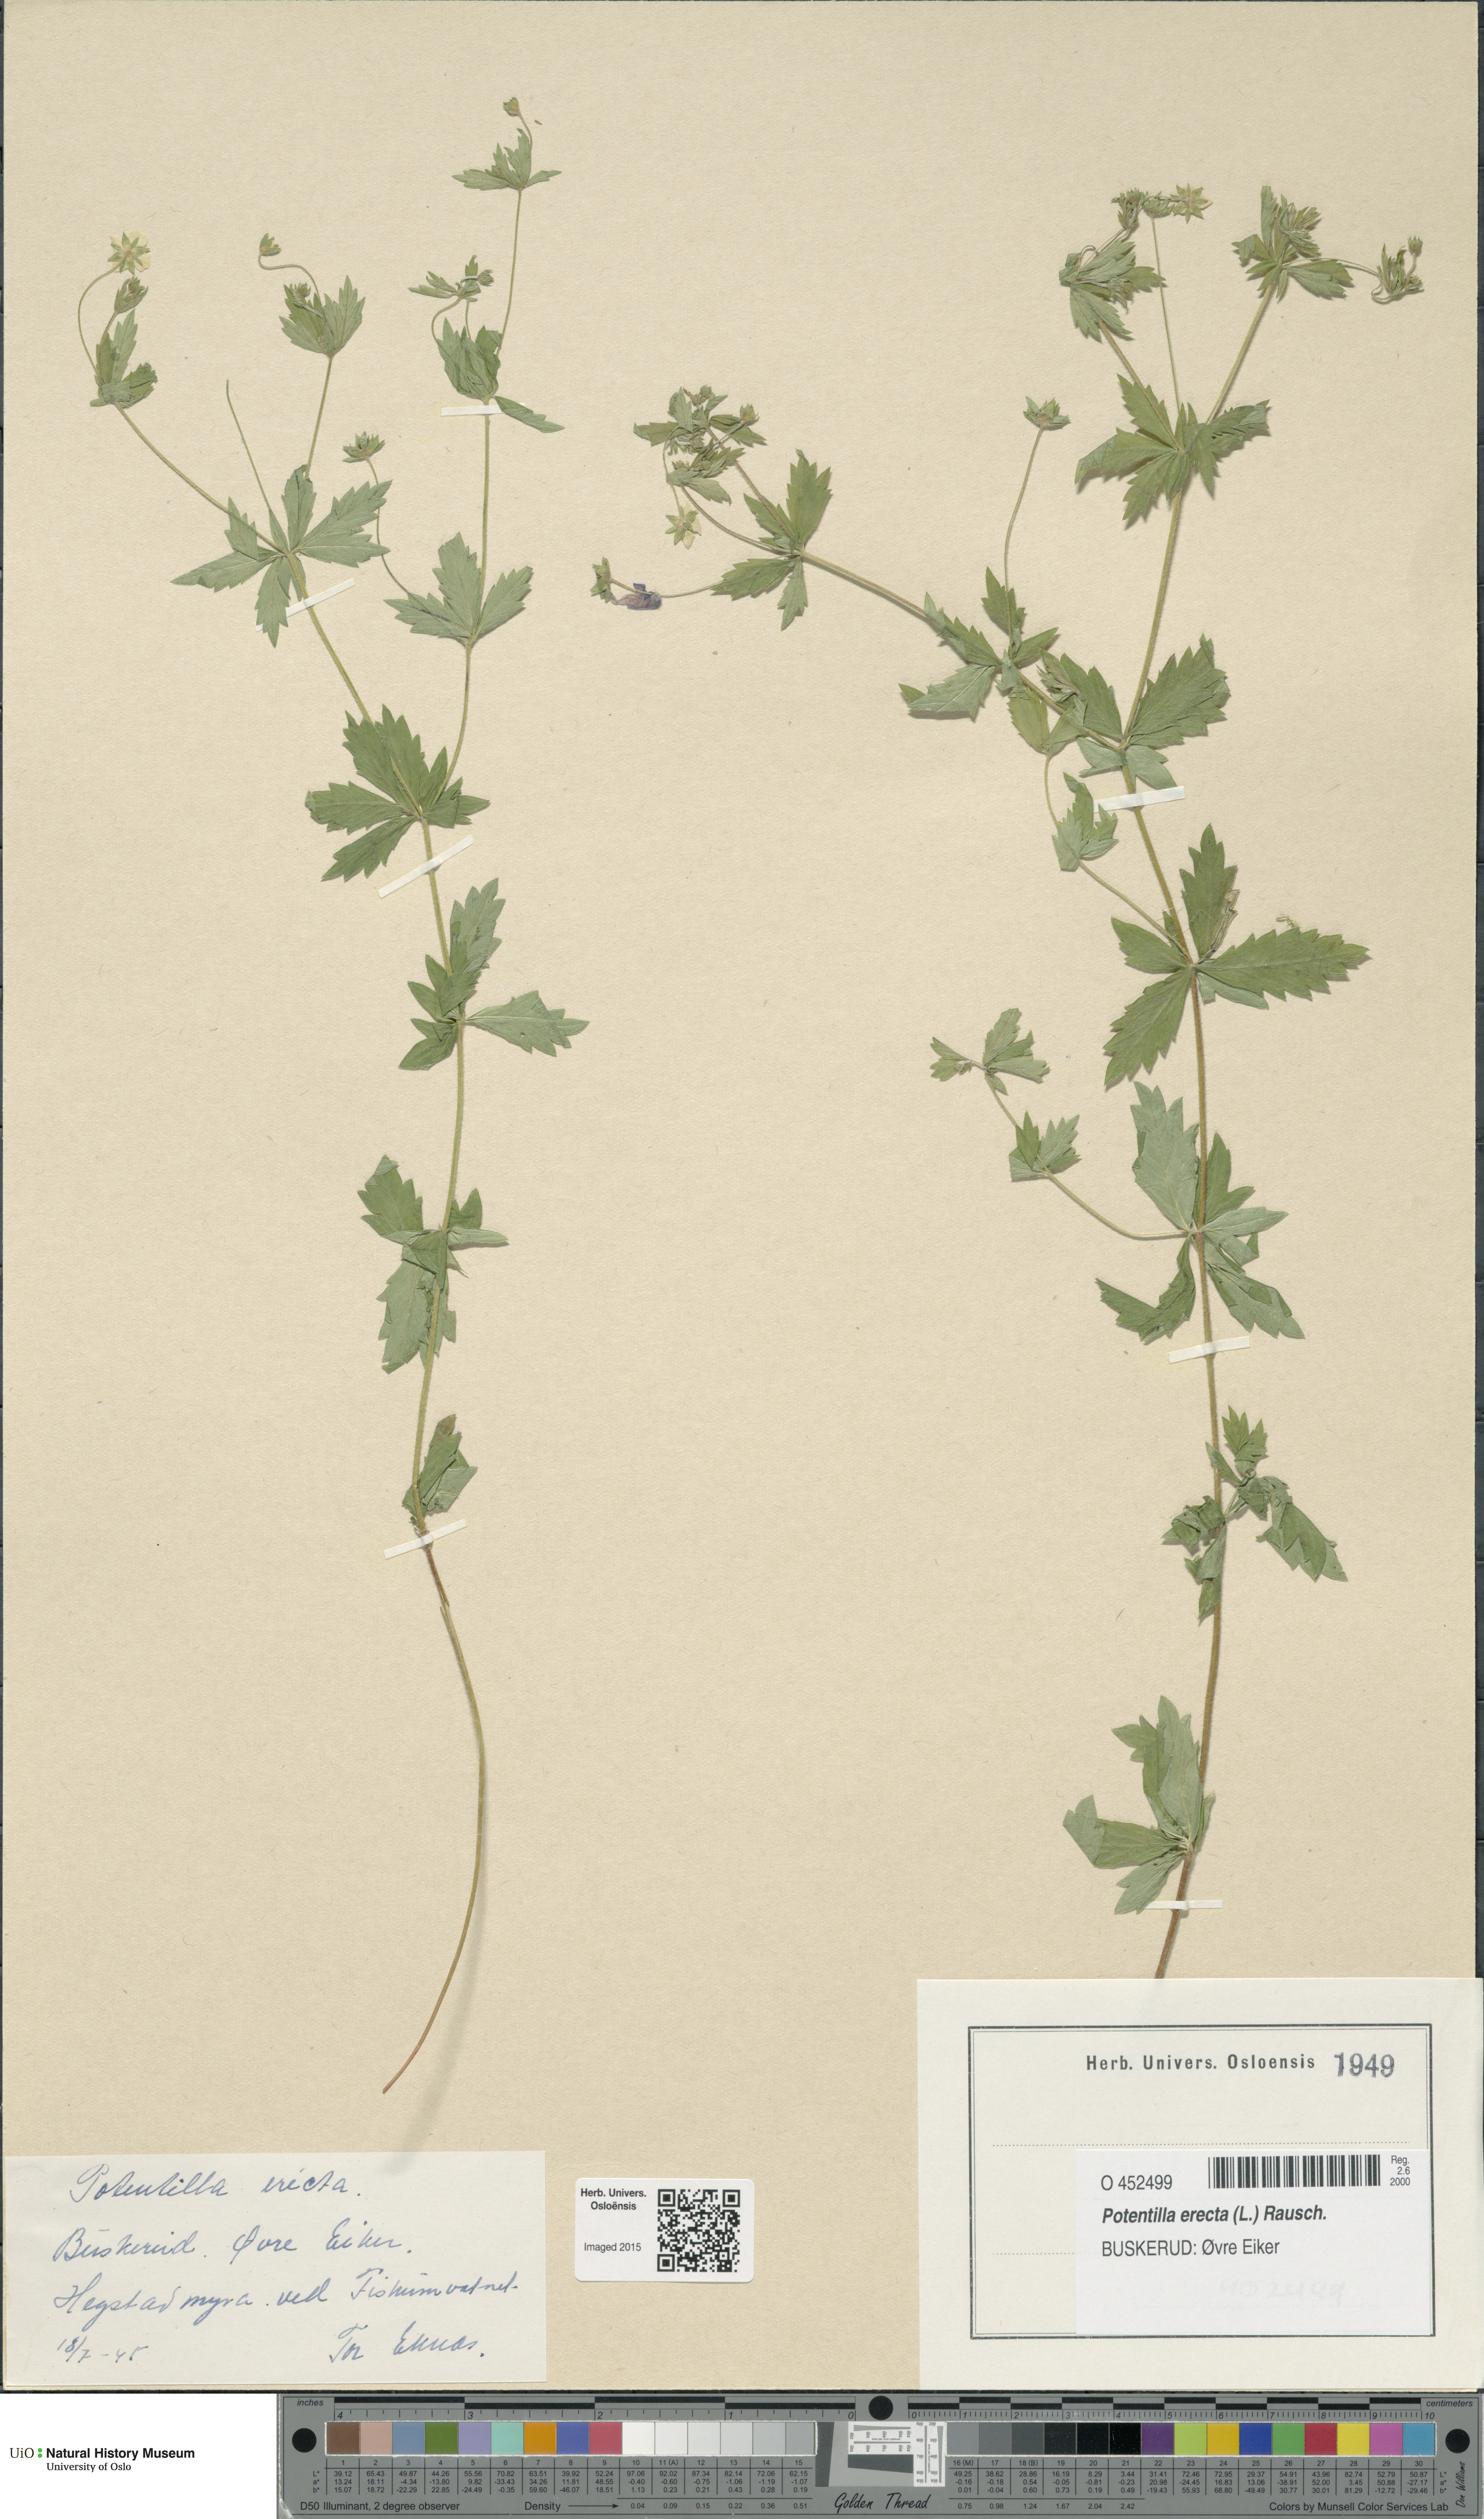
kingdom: Plantae
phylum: Tracheophyta
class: Magnoliopsida
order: Rosales
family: Rosaceae
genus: Potentilla
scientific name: Potentilla erecta
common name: Tormentil
